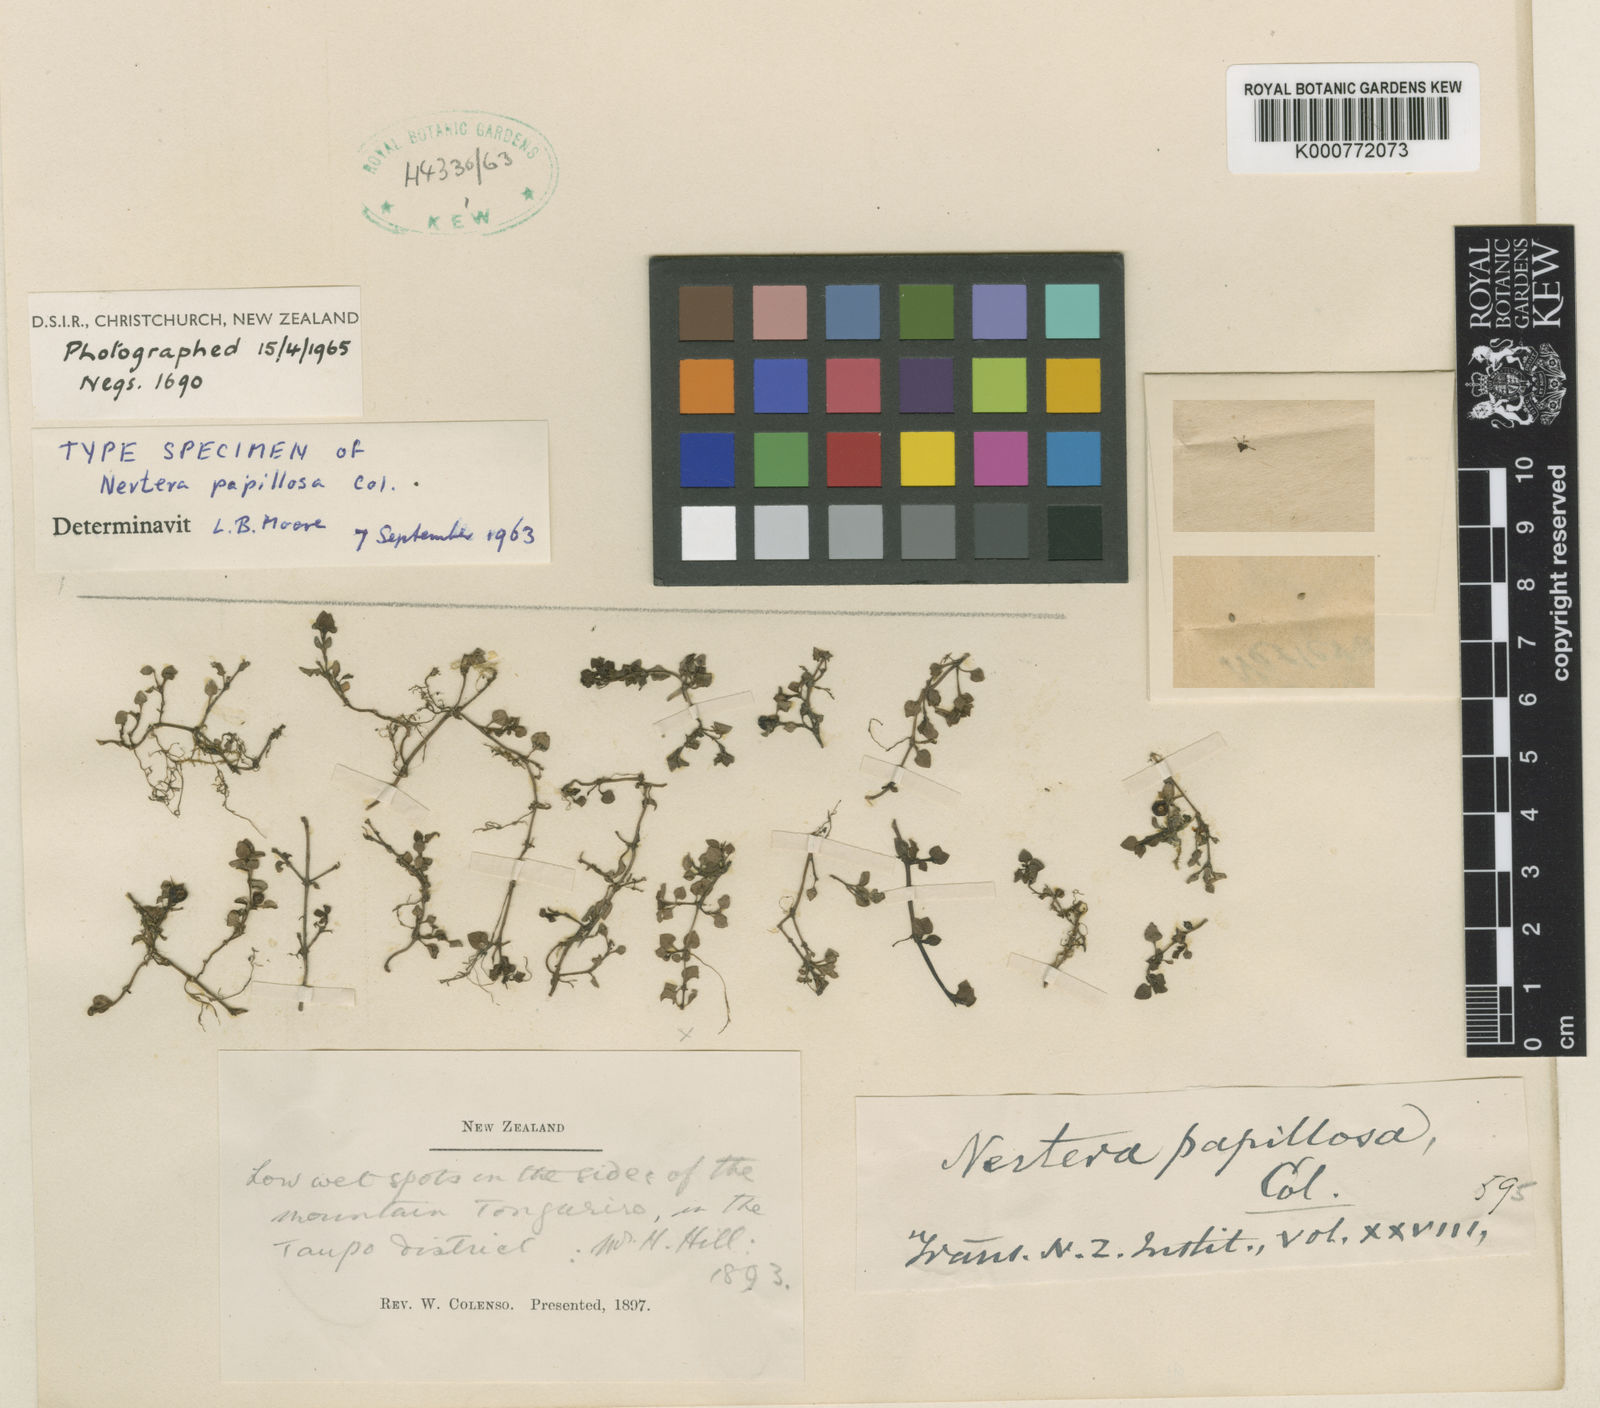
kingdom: Plantae
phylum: Tracheophyta
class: Magnoliopsida
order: Gentianales
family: Rubiaceae
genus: Nertera
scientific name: Nertera cunninghamii
